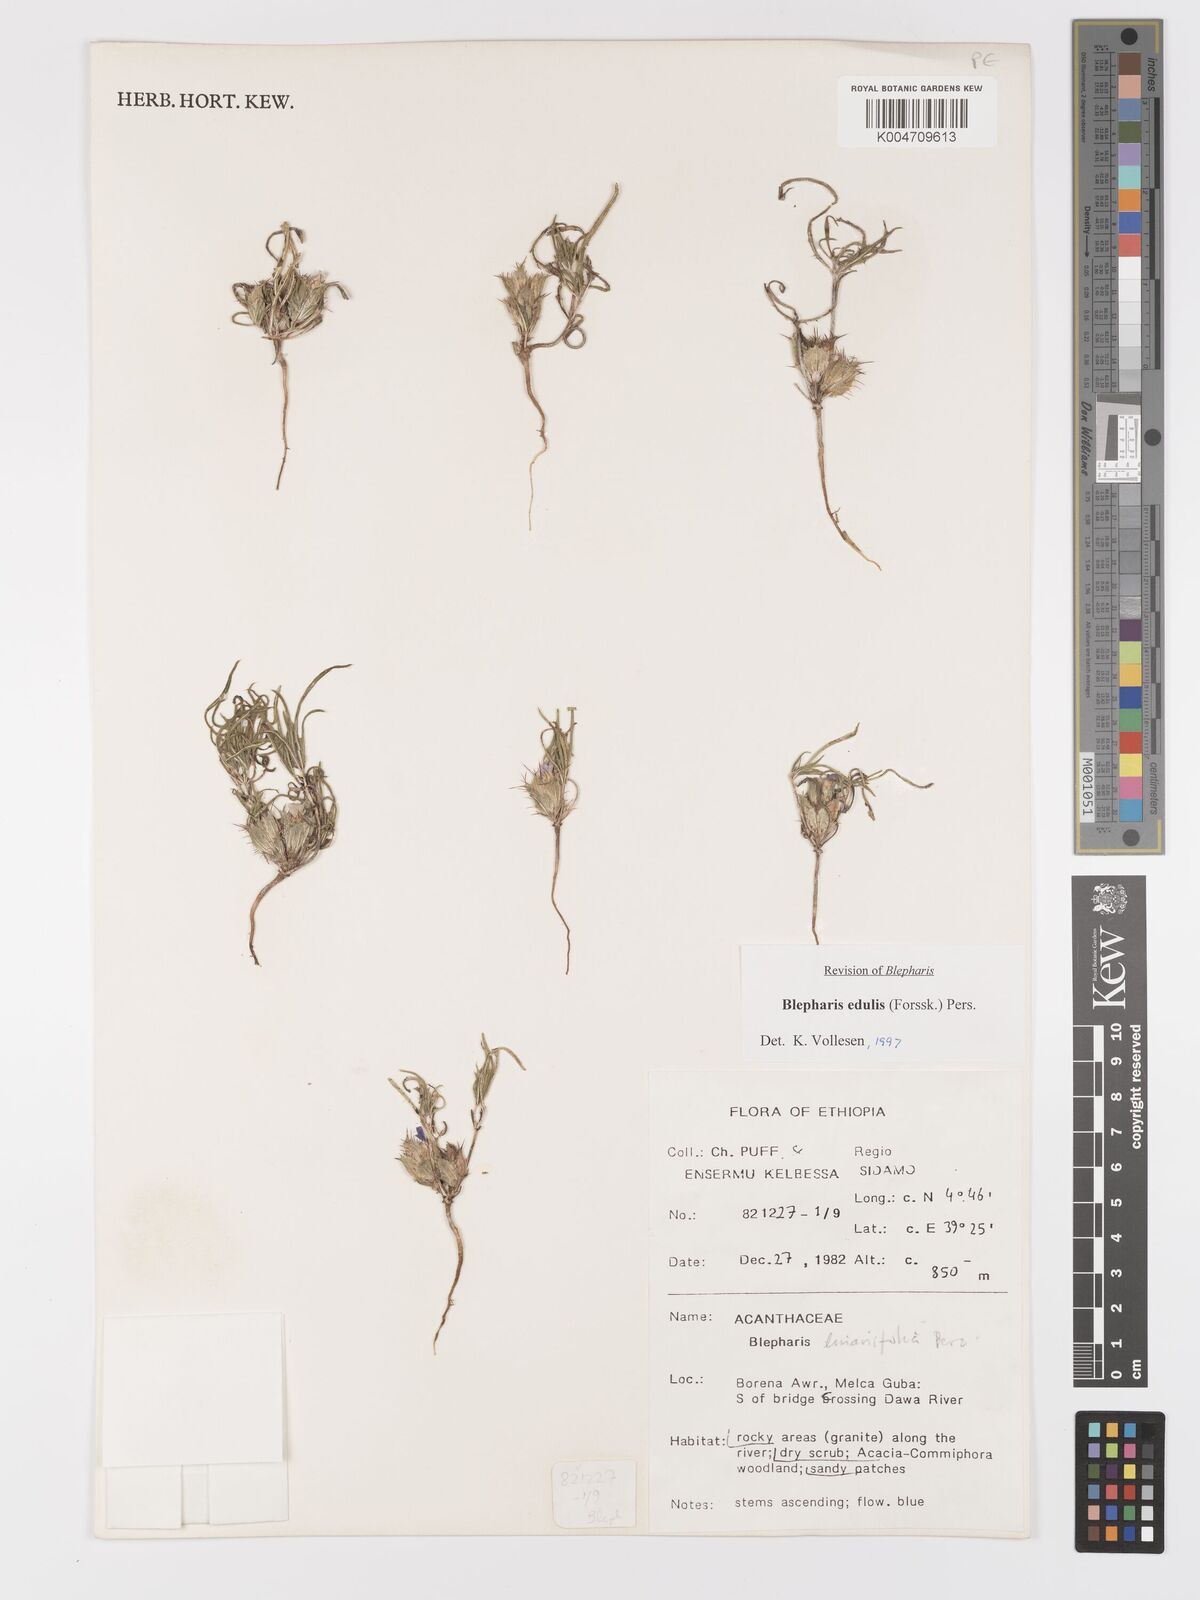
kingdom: Plantae
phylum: Tracheophyta
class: Magnoliopsida
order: Lamiales
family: Acanthaceae
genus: Blepharis
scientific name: Blepharis edulis
